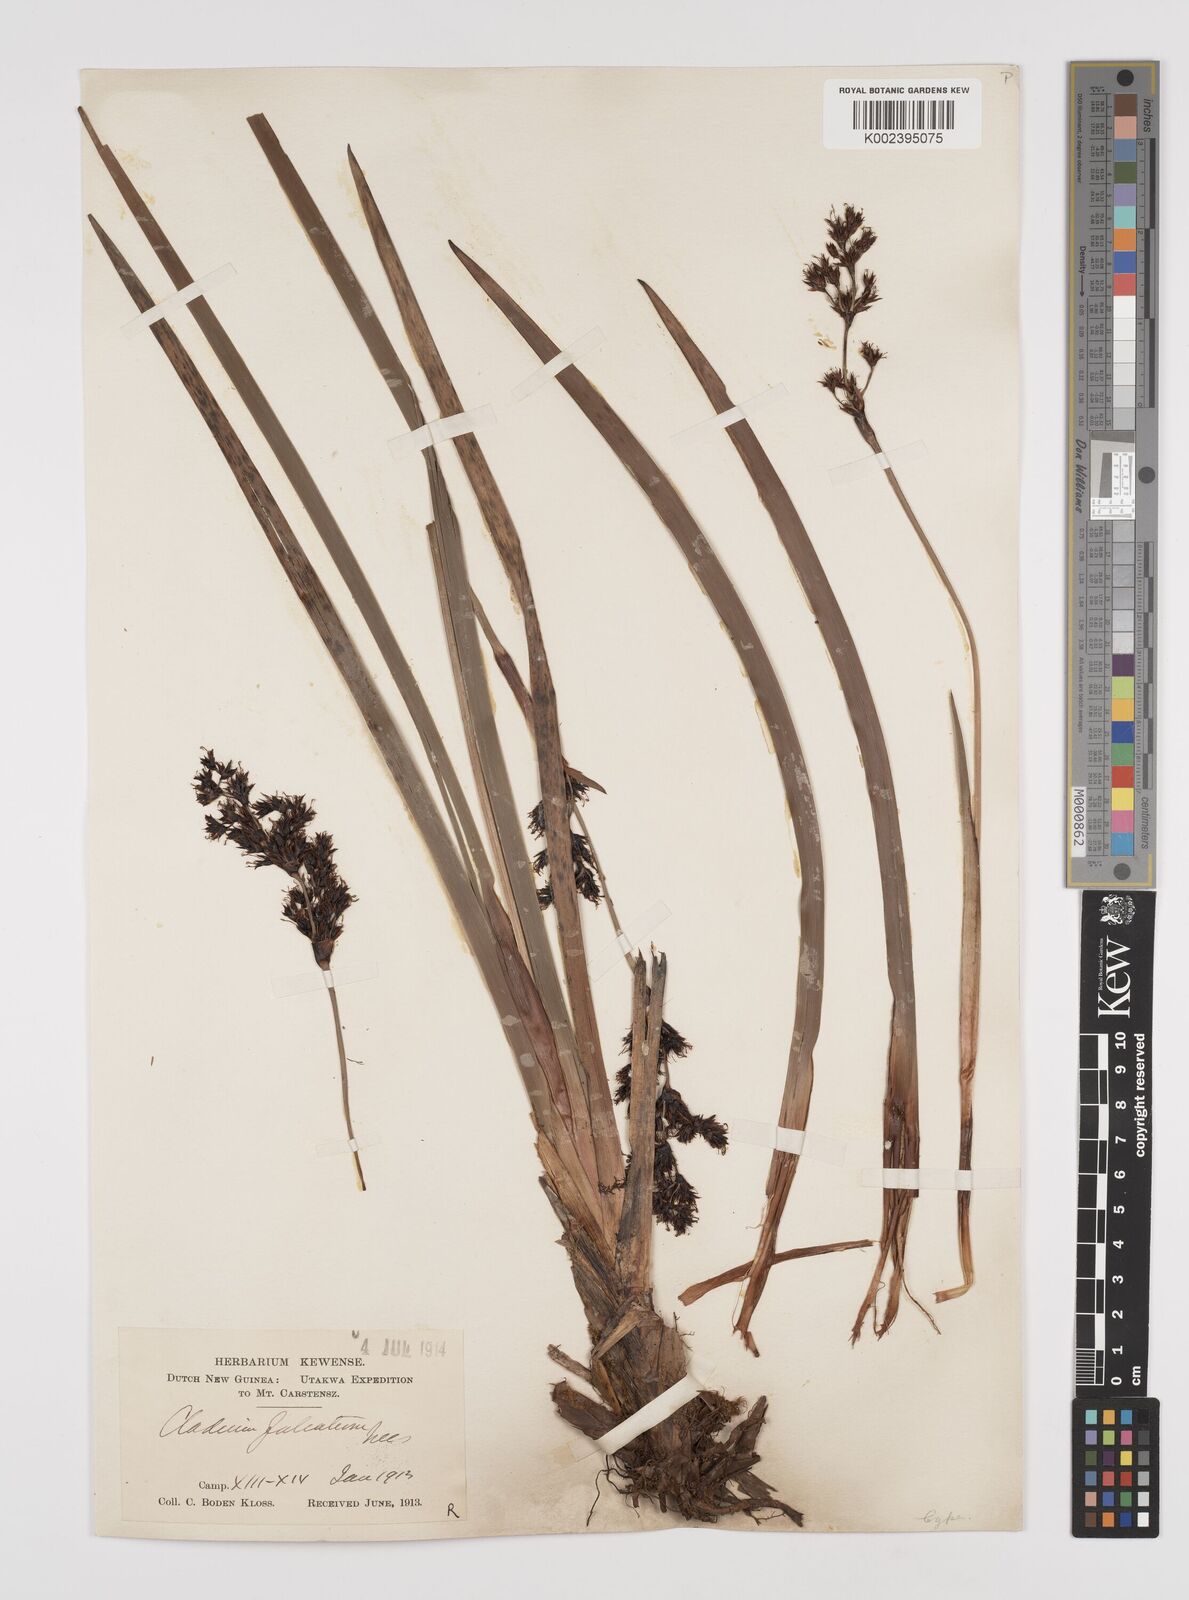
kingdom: Plantae
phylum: Tracheophyta
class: Liliopsida
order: Poales
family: Cyperaceae
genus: Machaerina
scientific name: Machaerina falcata
